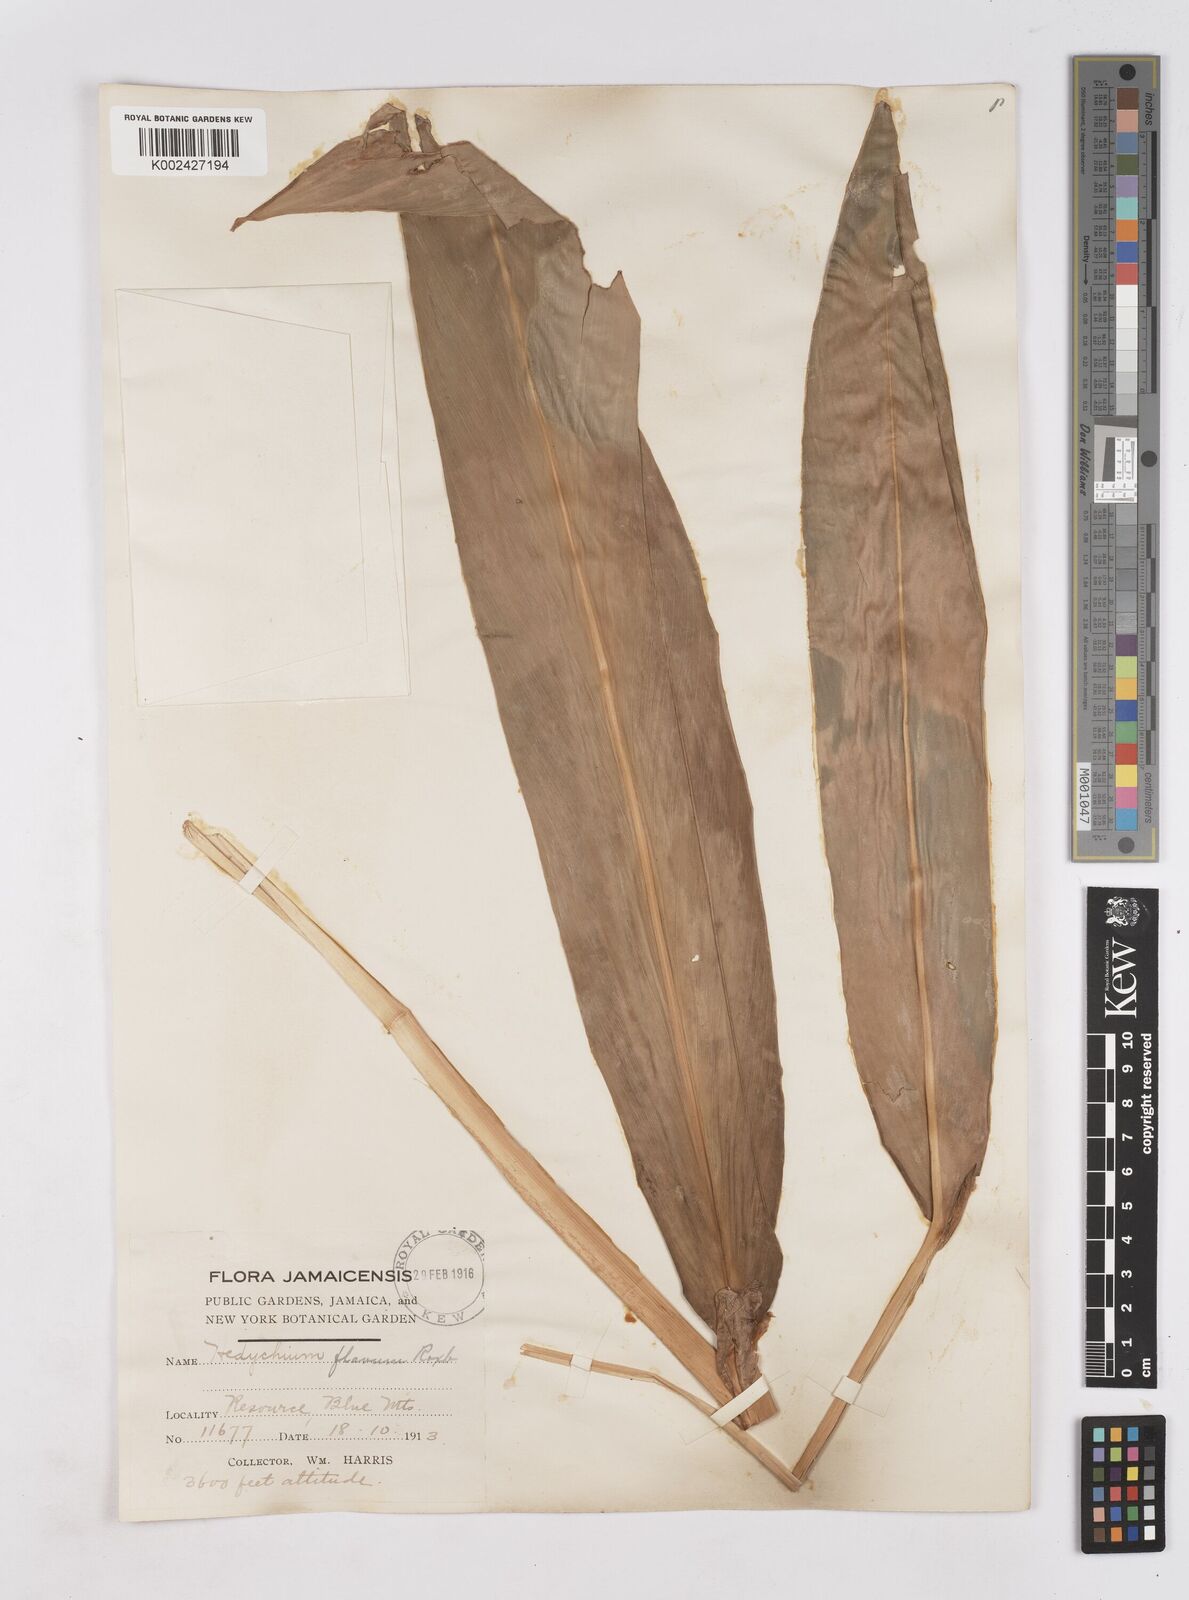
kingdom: Plantae
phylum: Tracheophyta
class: Liliopsida
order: Zingiberales
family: Zingiberaceae
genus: Hedychium
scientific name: Hedychium flavum
